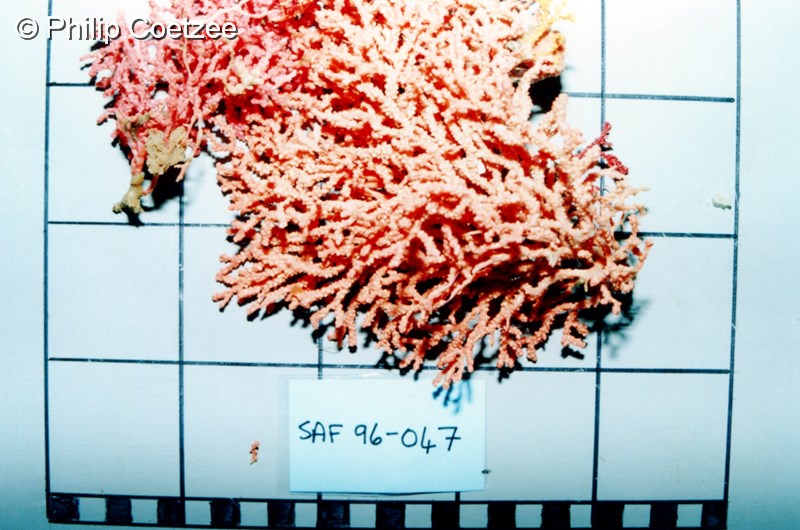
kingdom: Animalia
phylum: Cnidaria
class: Anthozoa
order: Malacalcyonacea
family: Melithaeidae
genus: Melithaea
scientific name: Melithaea rubra
